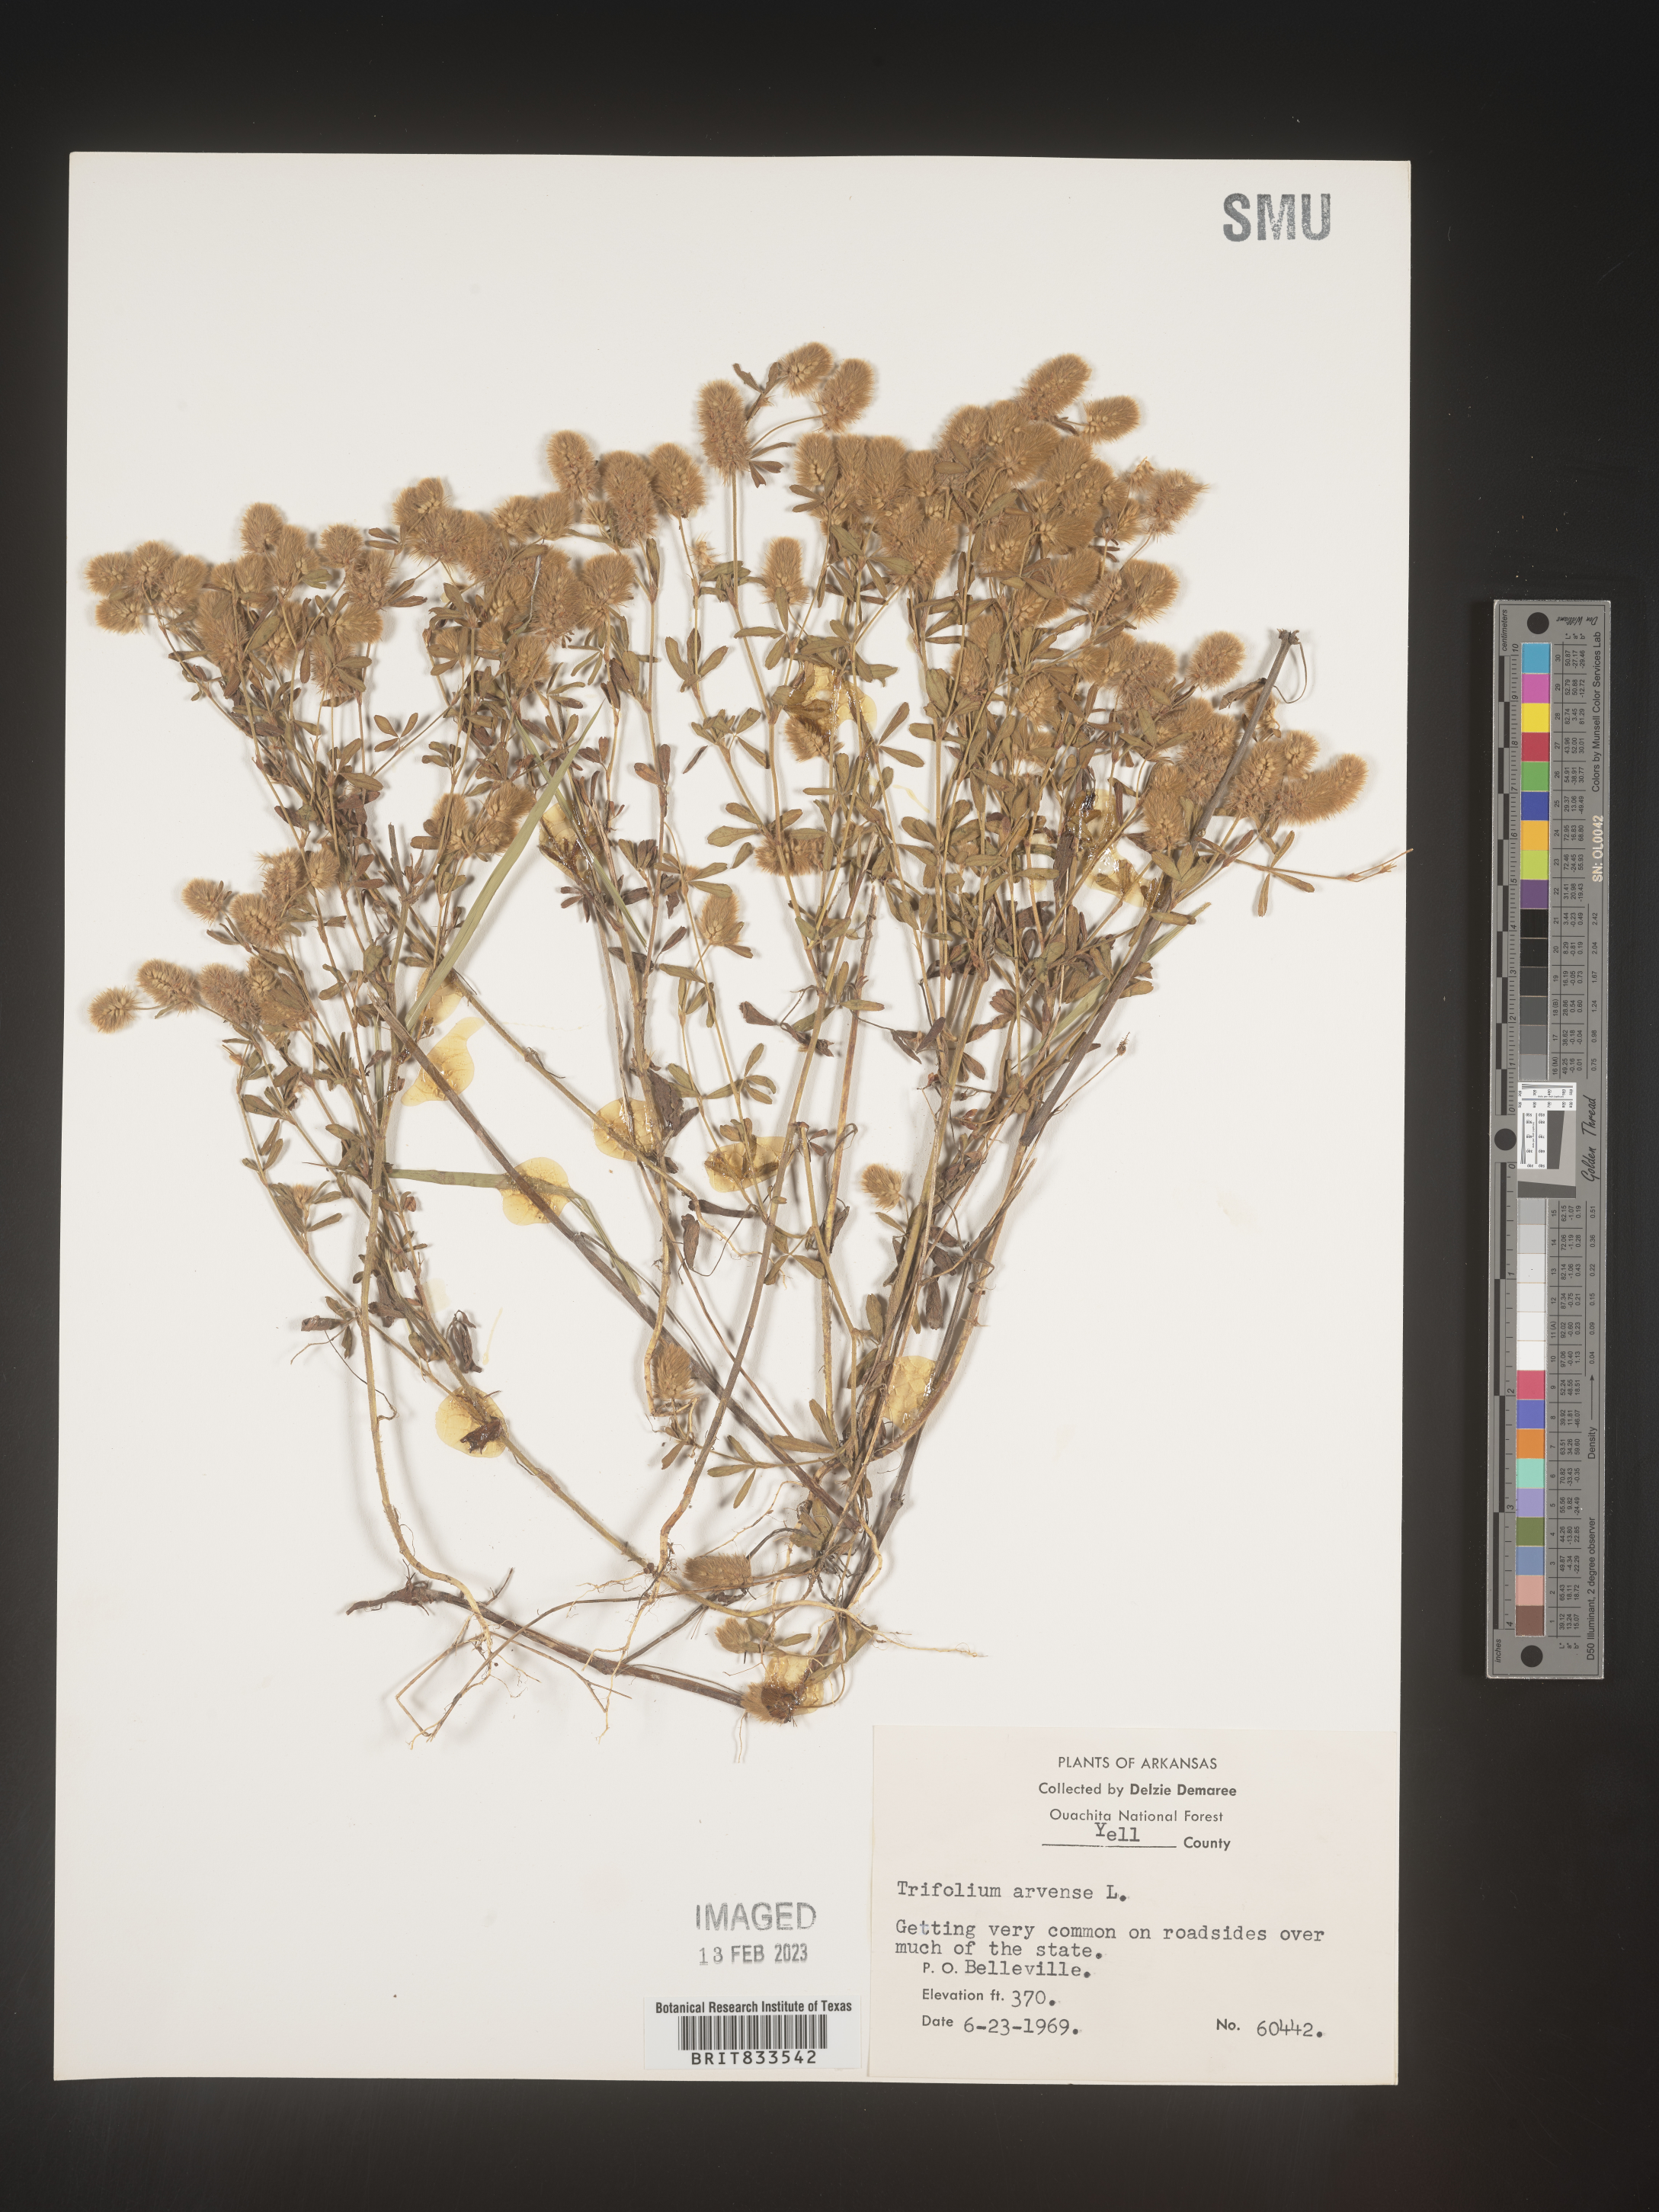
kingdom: Plantae
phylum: Tracheophyta
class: Magnoliopsida
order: Fabales
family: Fabaceae
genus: Trifolium
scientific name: Trifolium arvense
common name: Hare's-foot clover
